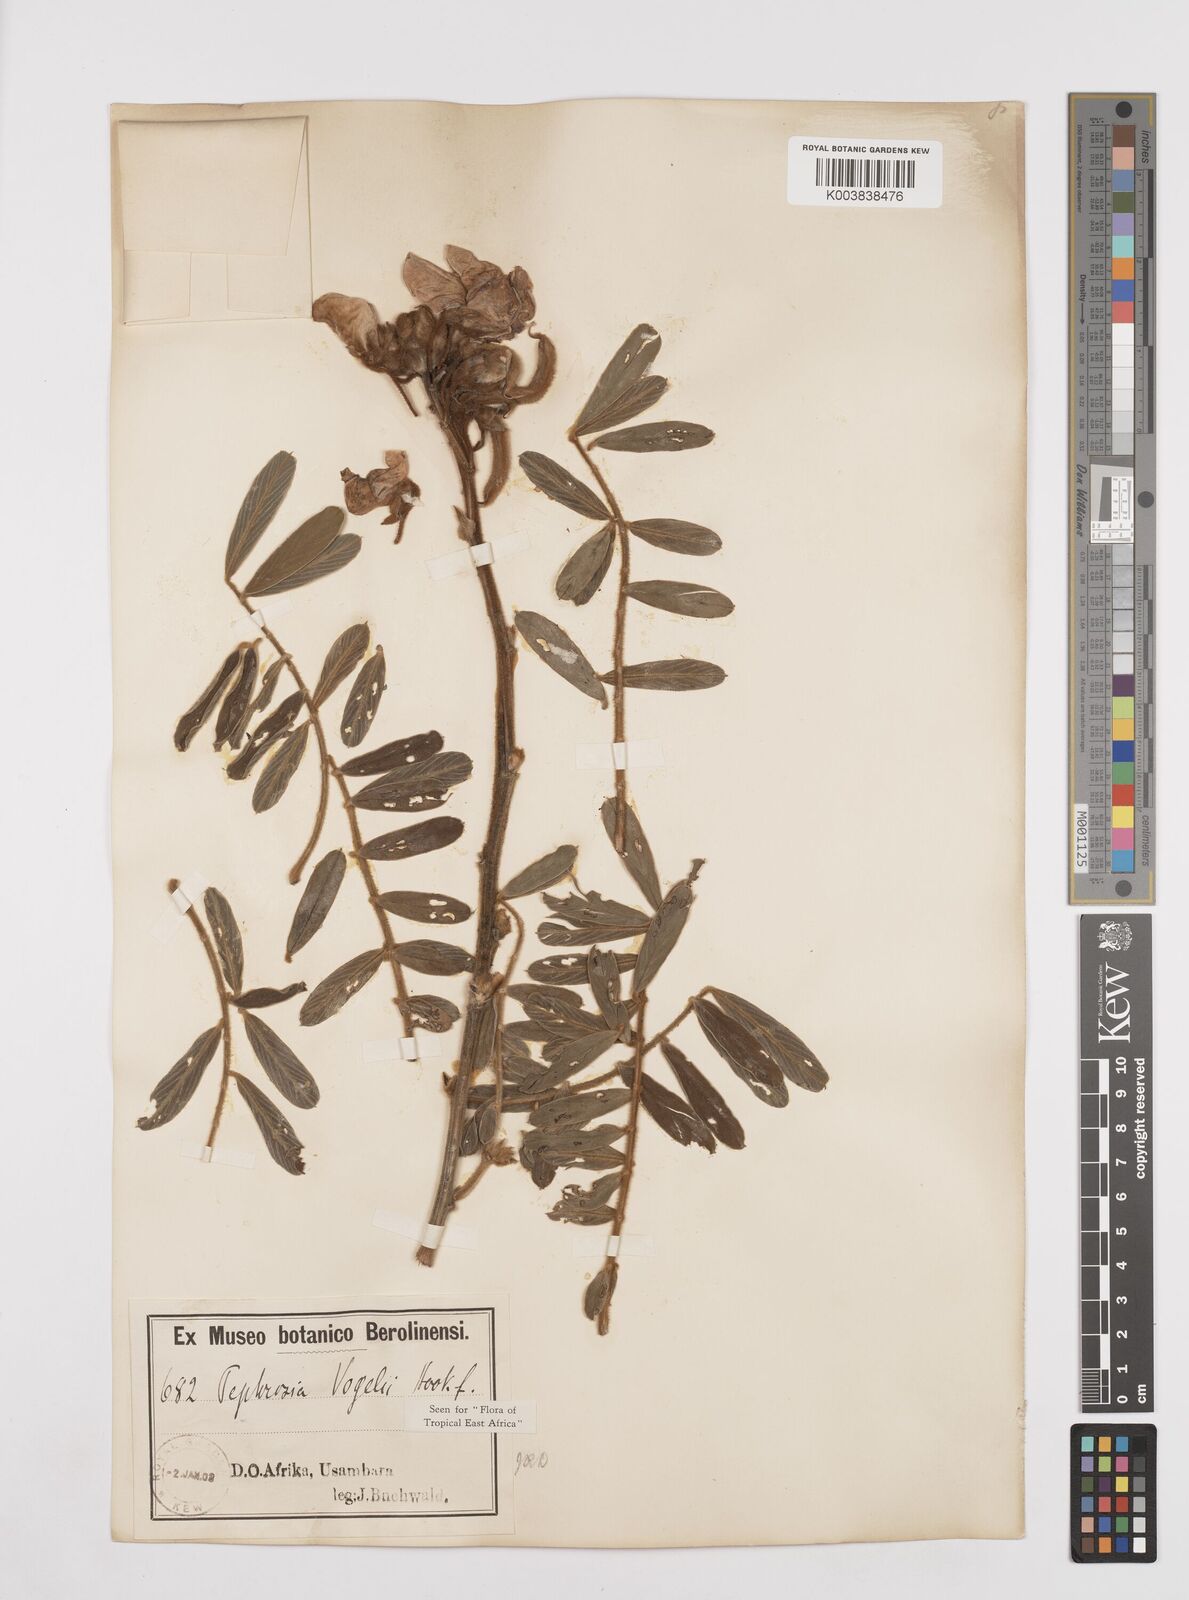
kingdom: Plantae
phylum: Tracheophyta
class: Magnoliopsida
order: Fabales
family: Fabaceae
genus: Tephrosia
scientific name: Tephrosia vogelii
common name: Vogel tephrosia
